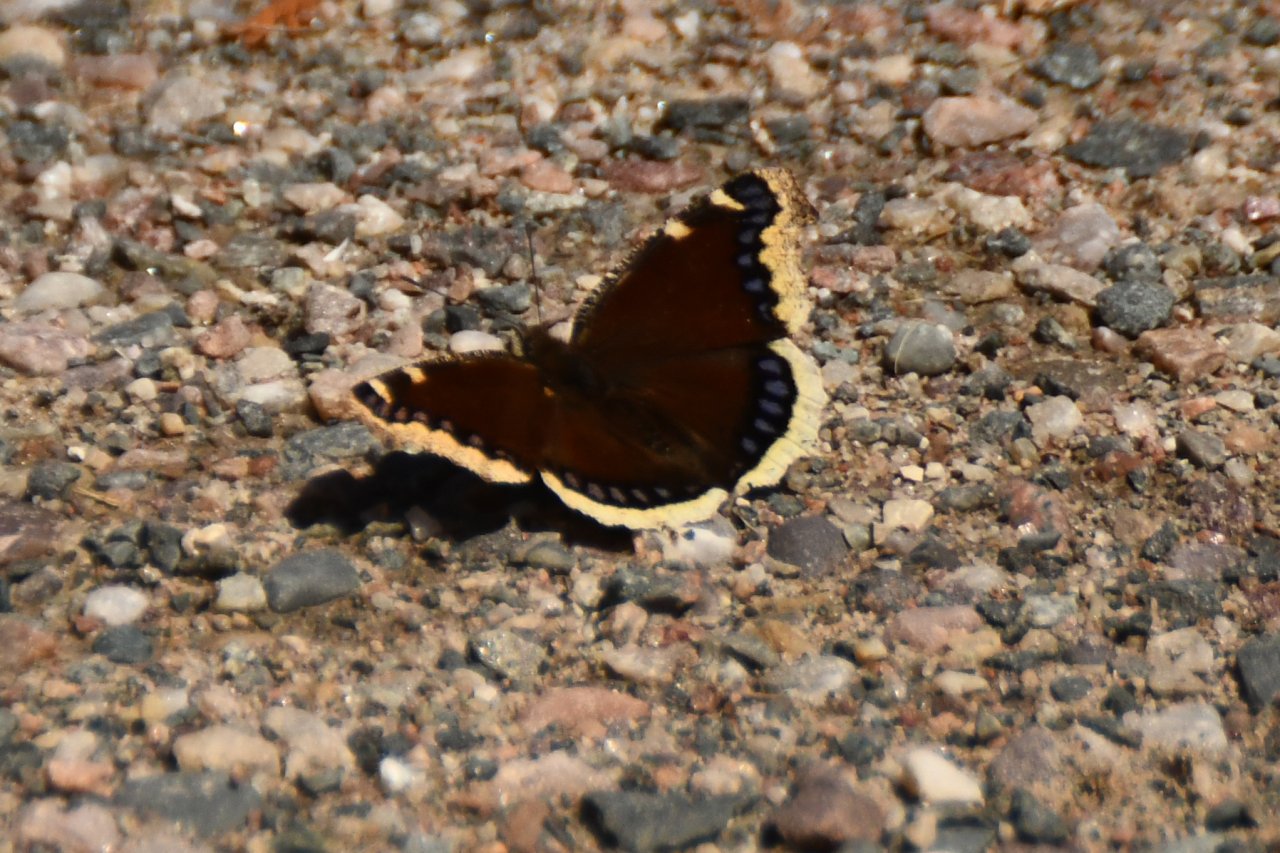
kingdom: Animalia
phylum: Arthropoda
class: Insecta
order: Lepidoptera
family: Nymphalidae
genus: Nymphalis
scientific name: Nymphalis antiopa
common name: Mourning Cloak
